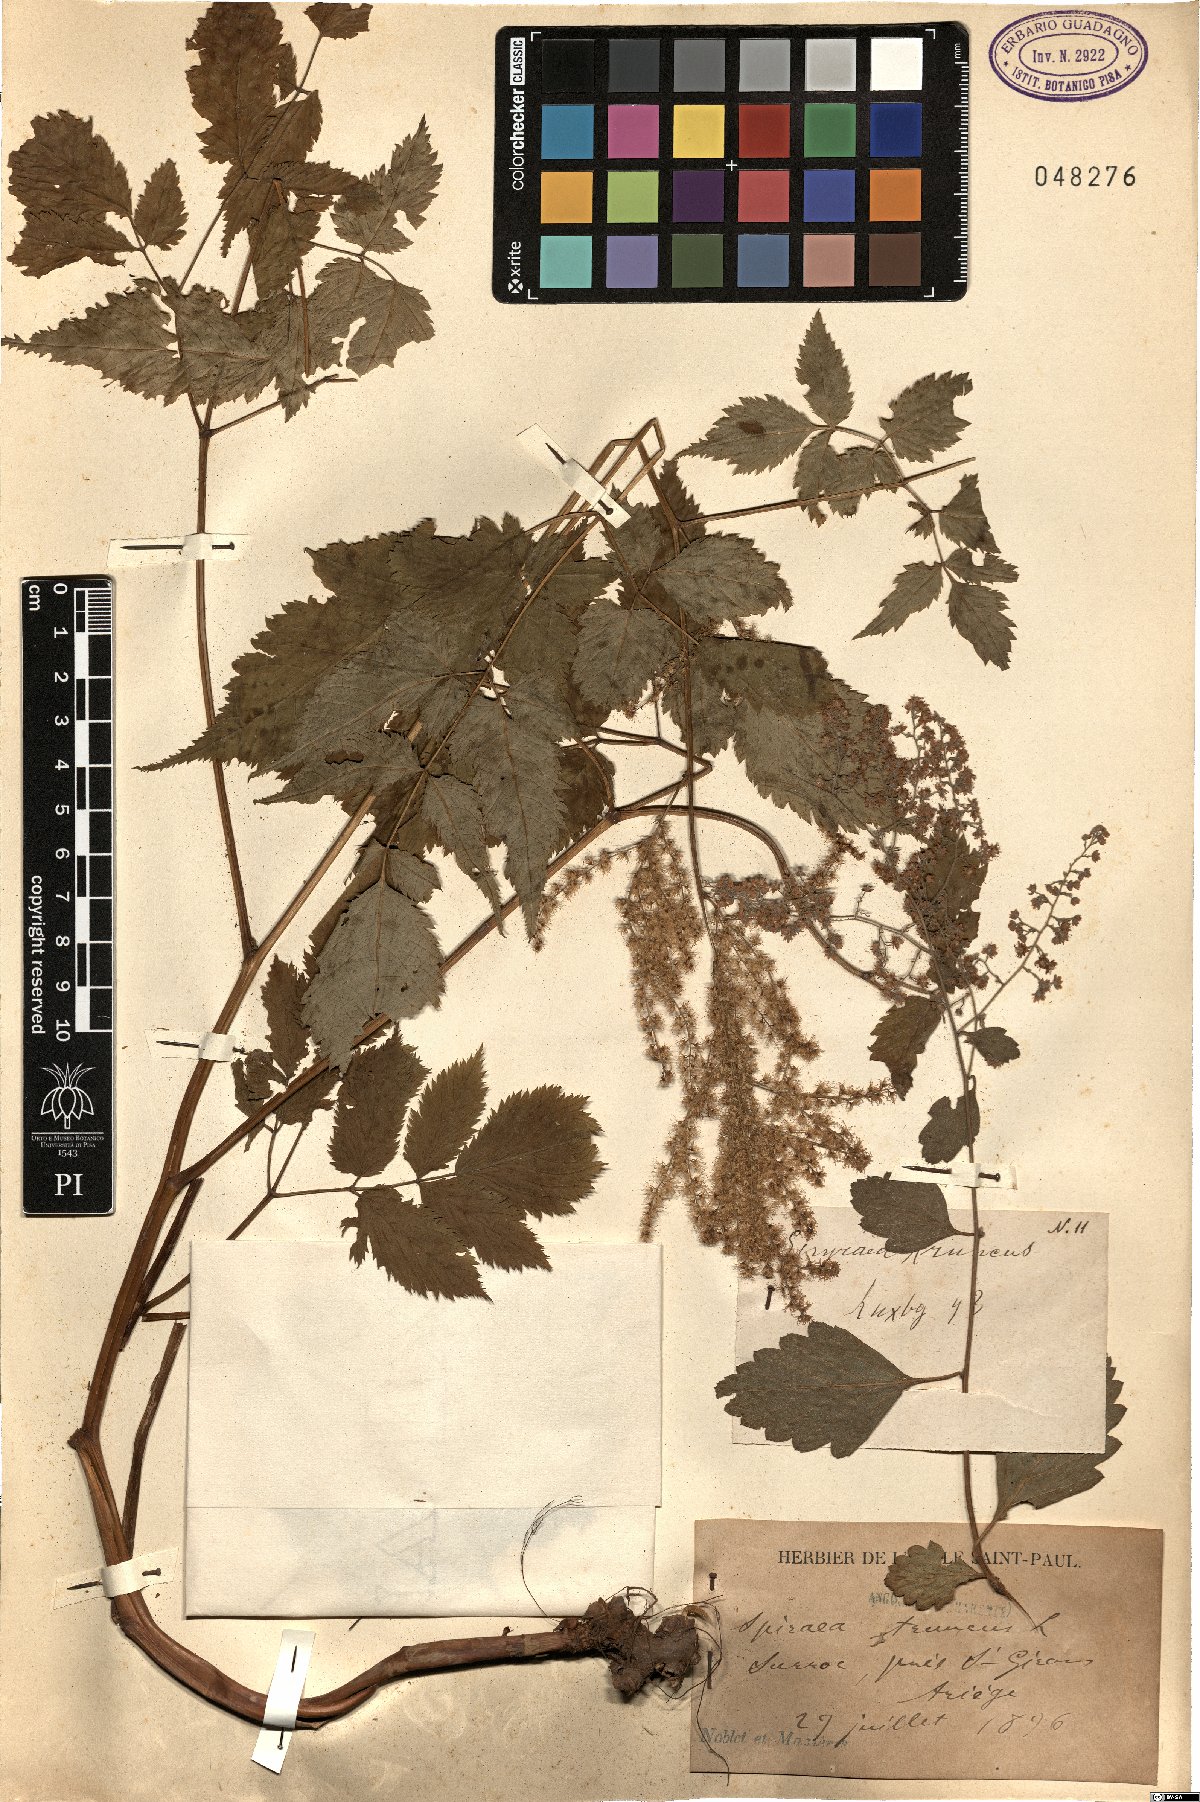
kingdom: Plantae
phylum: Tracheophyta
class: Magnoliopsida
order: Rosales
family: Rosaceae
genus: Aruncus
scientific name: Aruncus dioicus
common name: Buck's-beard
